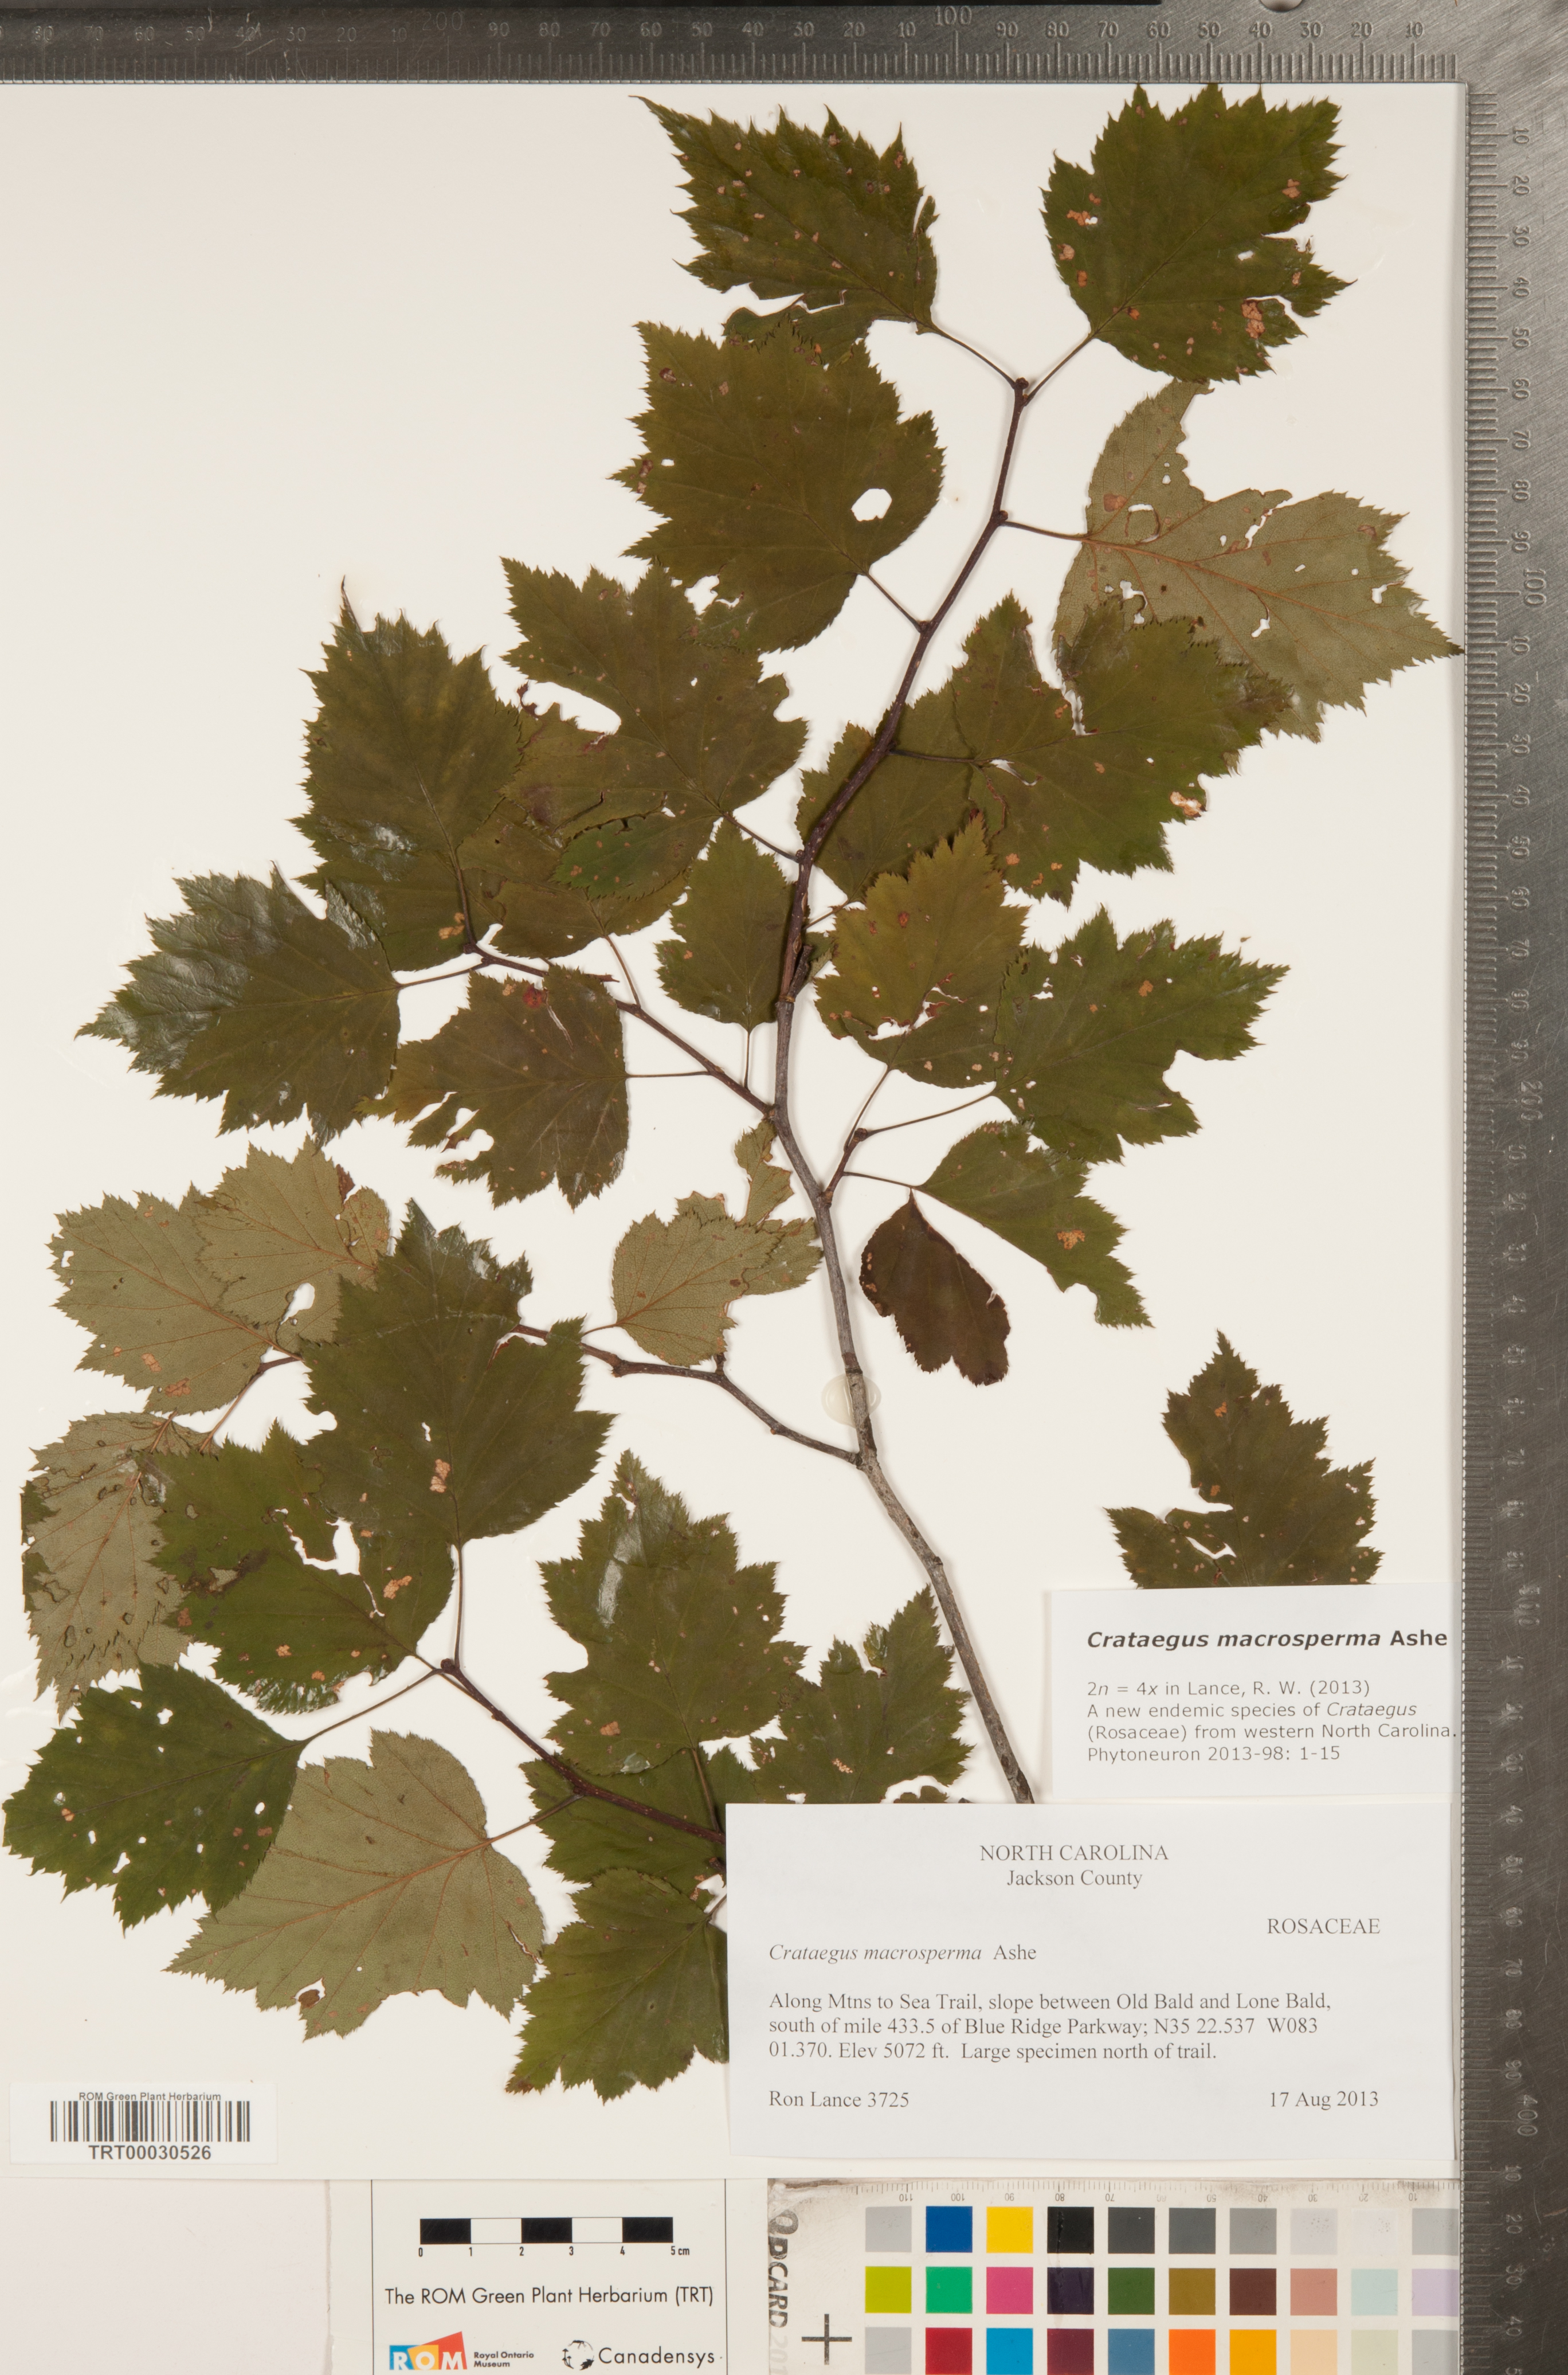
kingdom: Plantae
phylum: Tracheophyta
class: Magnoliopsida
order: Rosales
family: Rosaceae
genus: Crataegus
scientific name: Crataegus macrosperma
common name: Variable hawthorn
